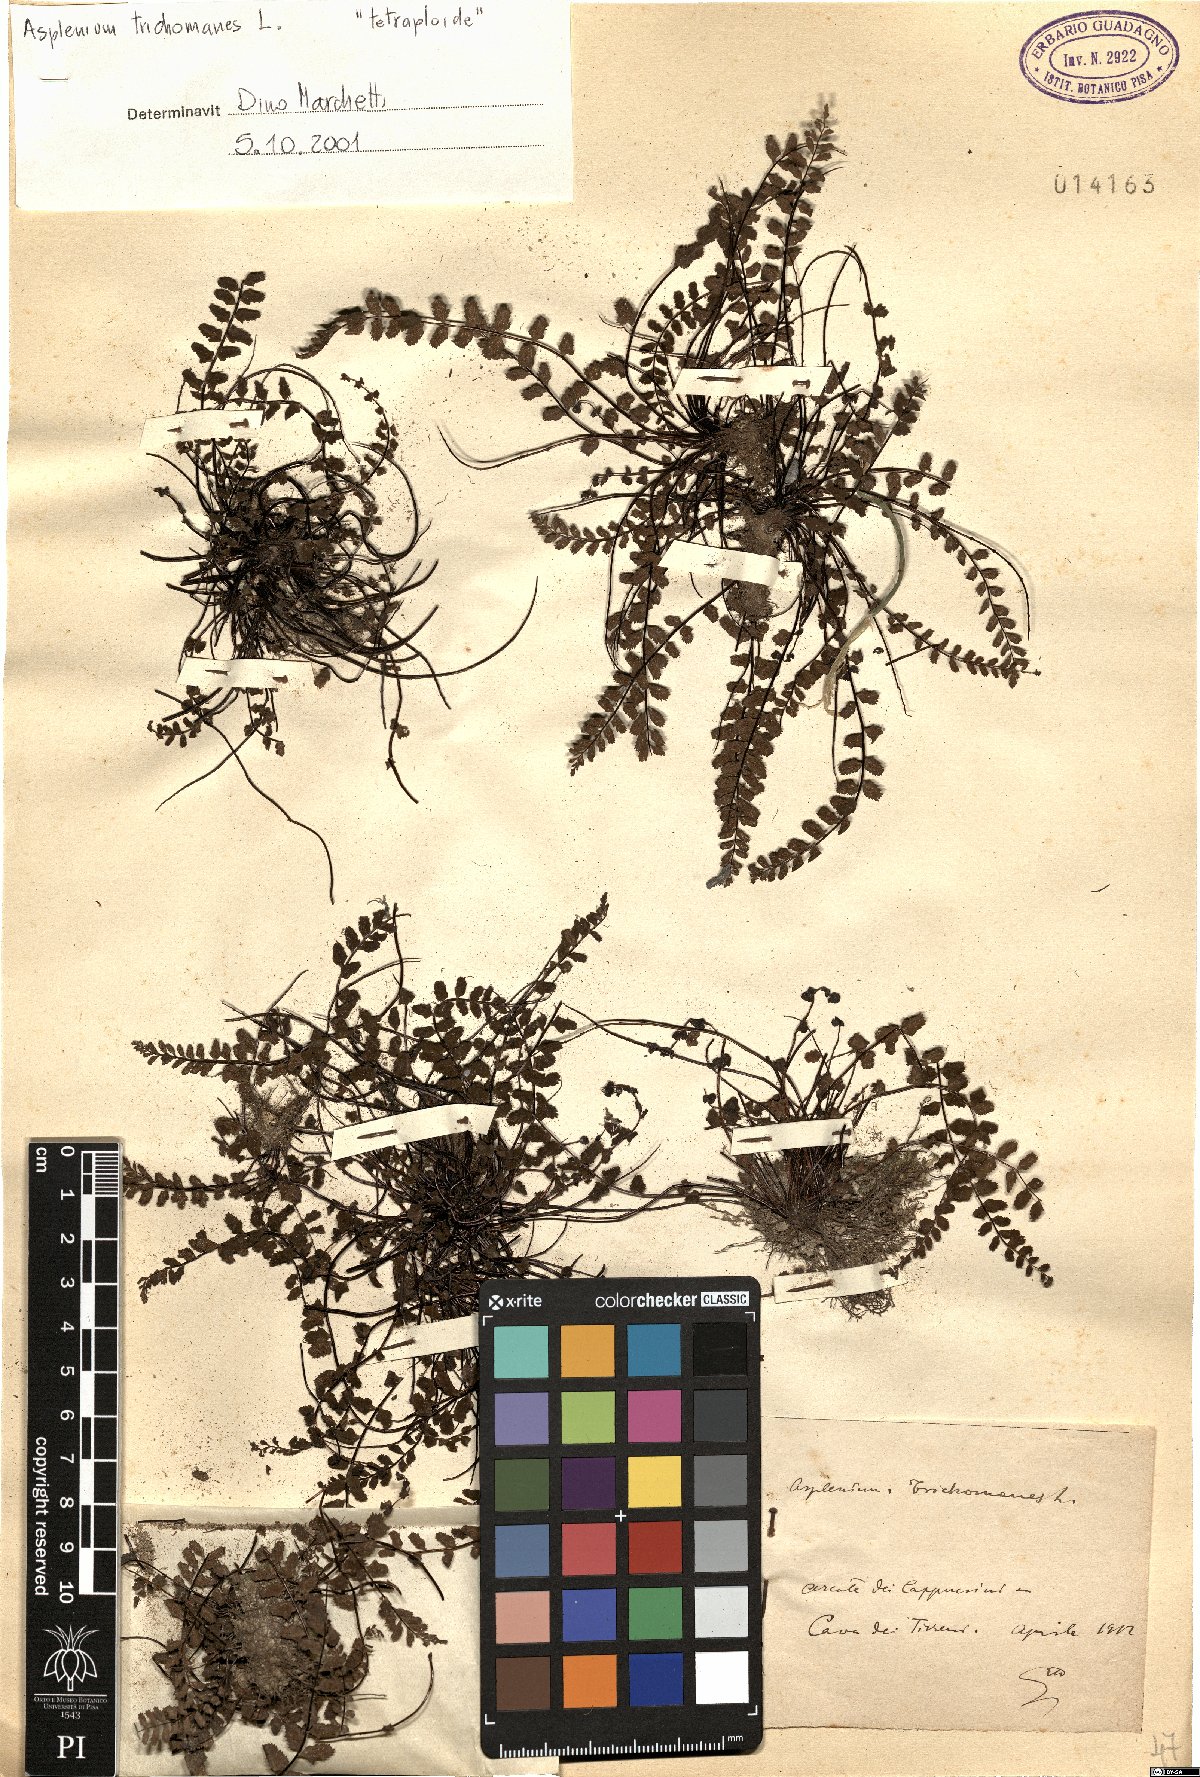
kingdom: Plantae
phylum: Tracheophyta
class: Polypodiopsida
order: Polypodiales
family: Aspleniaceae
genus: Asplenium
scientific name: Asplenium trichomanes
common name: Maidenhair spleenwort
